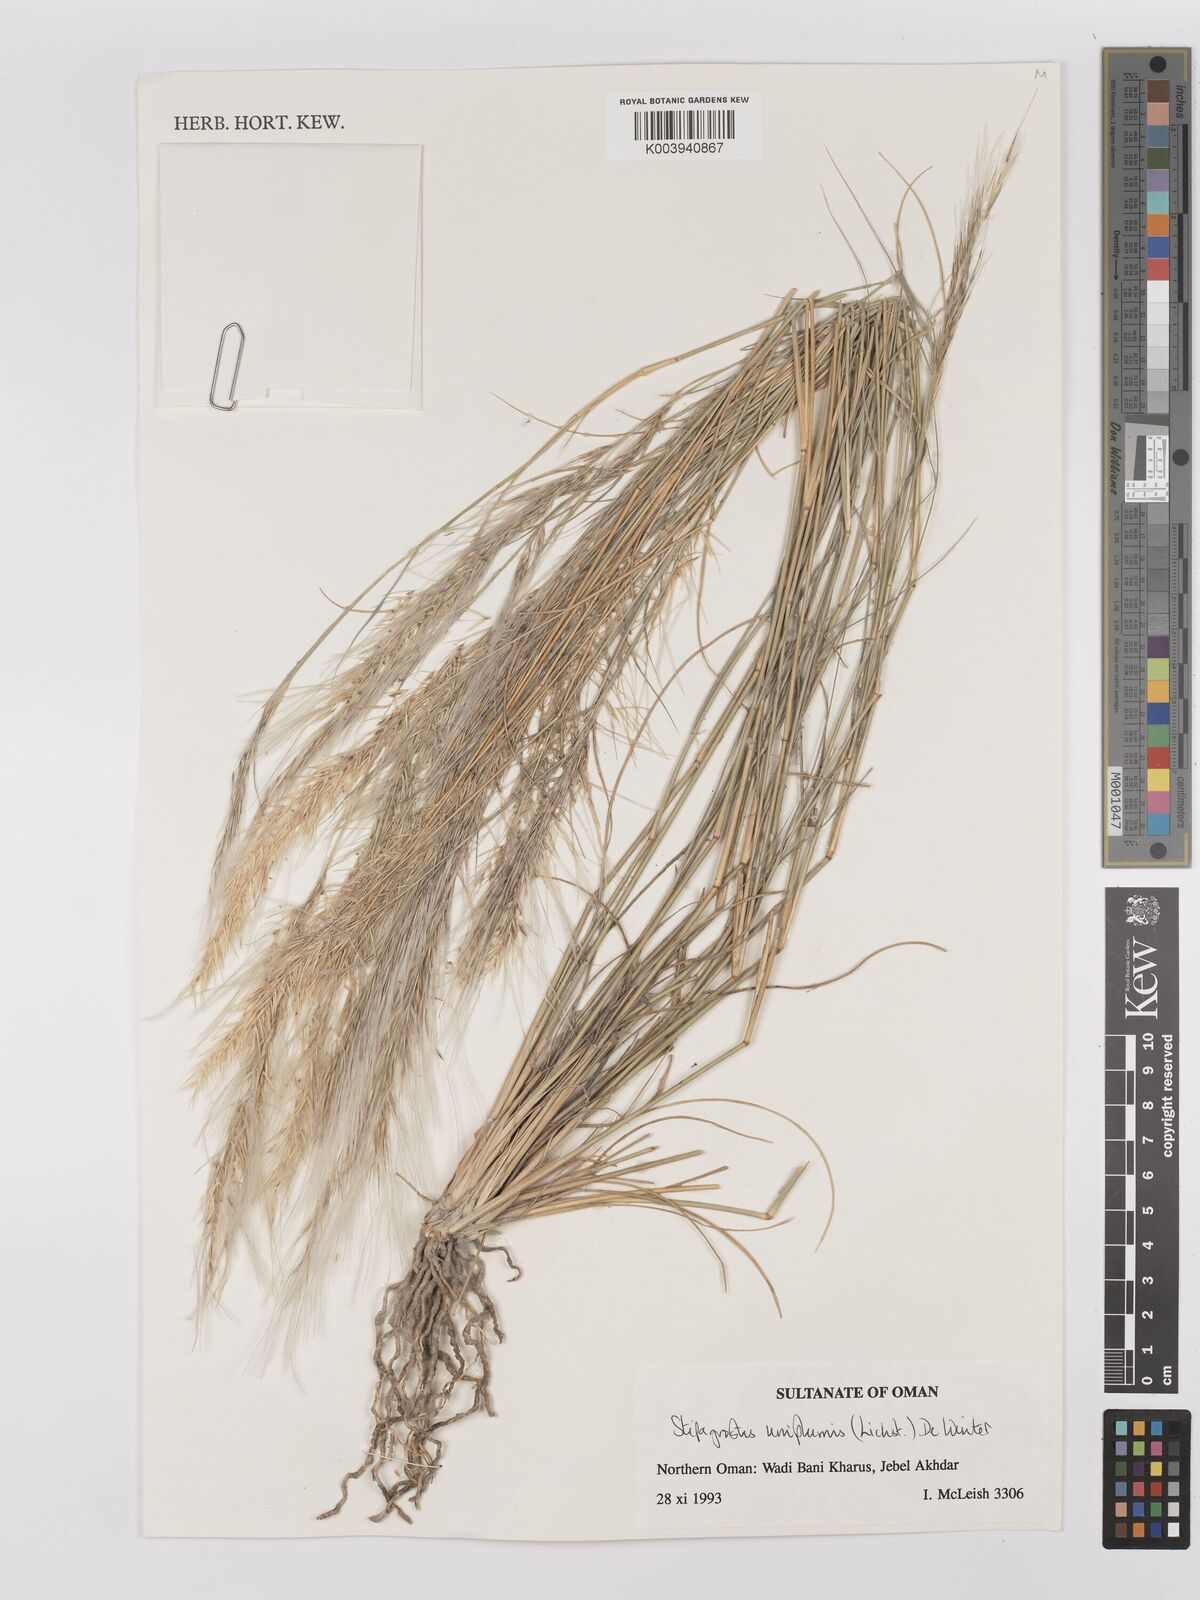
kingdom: Plantae
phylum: Tracheophyta
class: Liliopsida
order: Poales
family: Poaceae
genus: Stipagrostis
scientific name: Stipagrostis uniplumis
